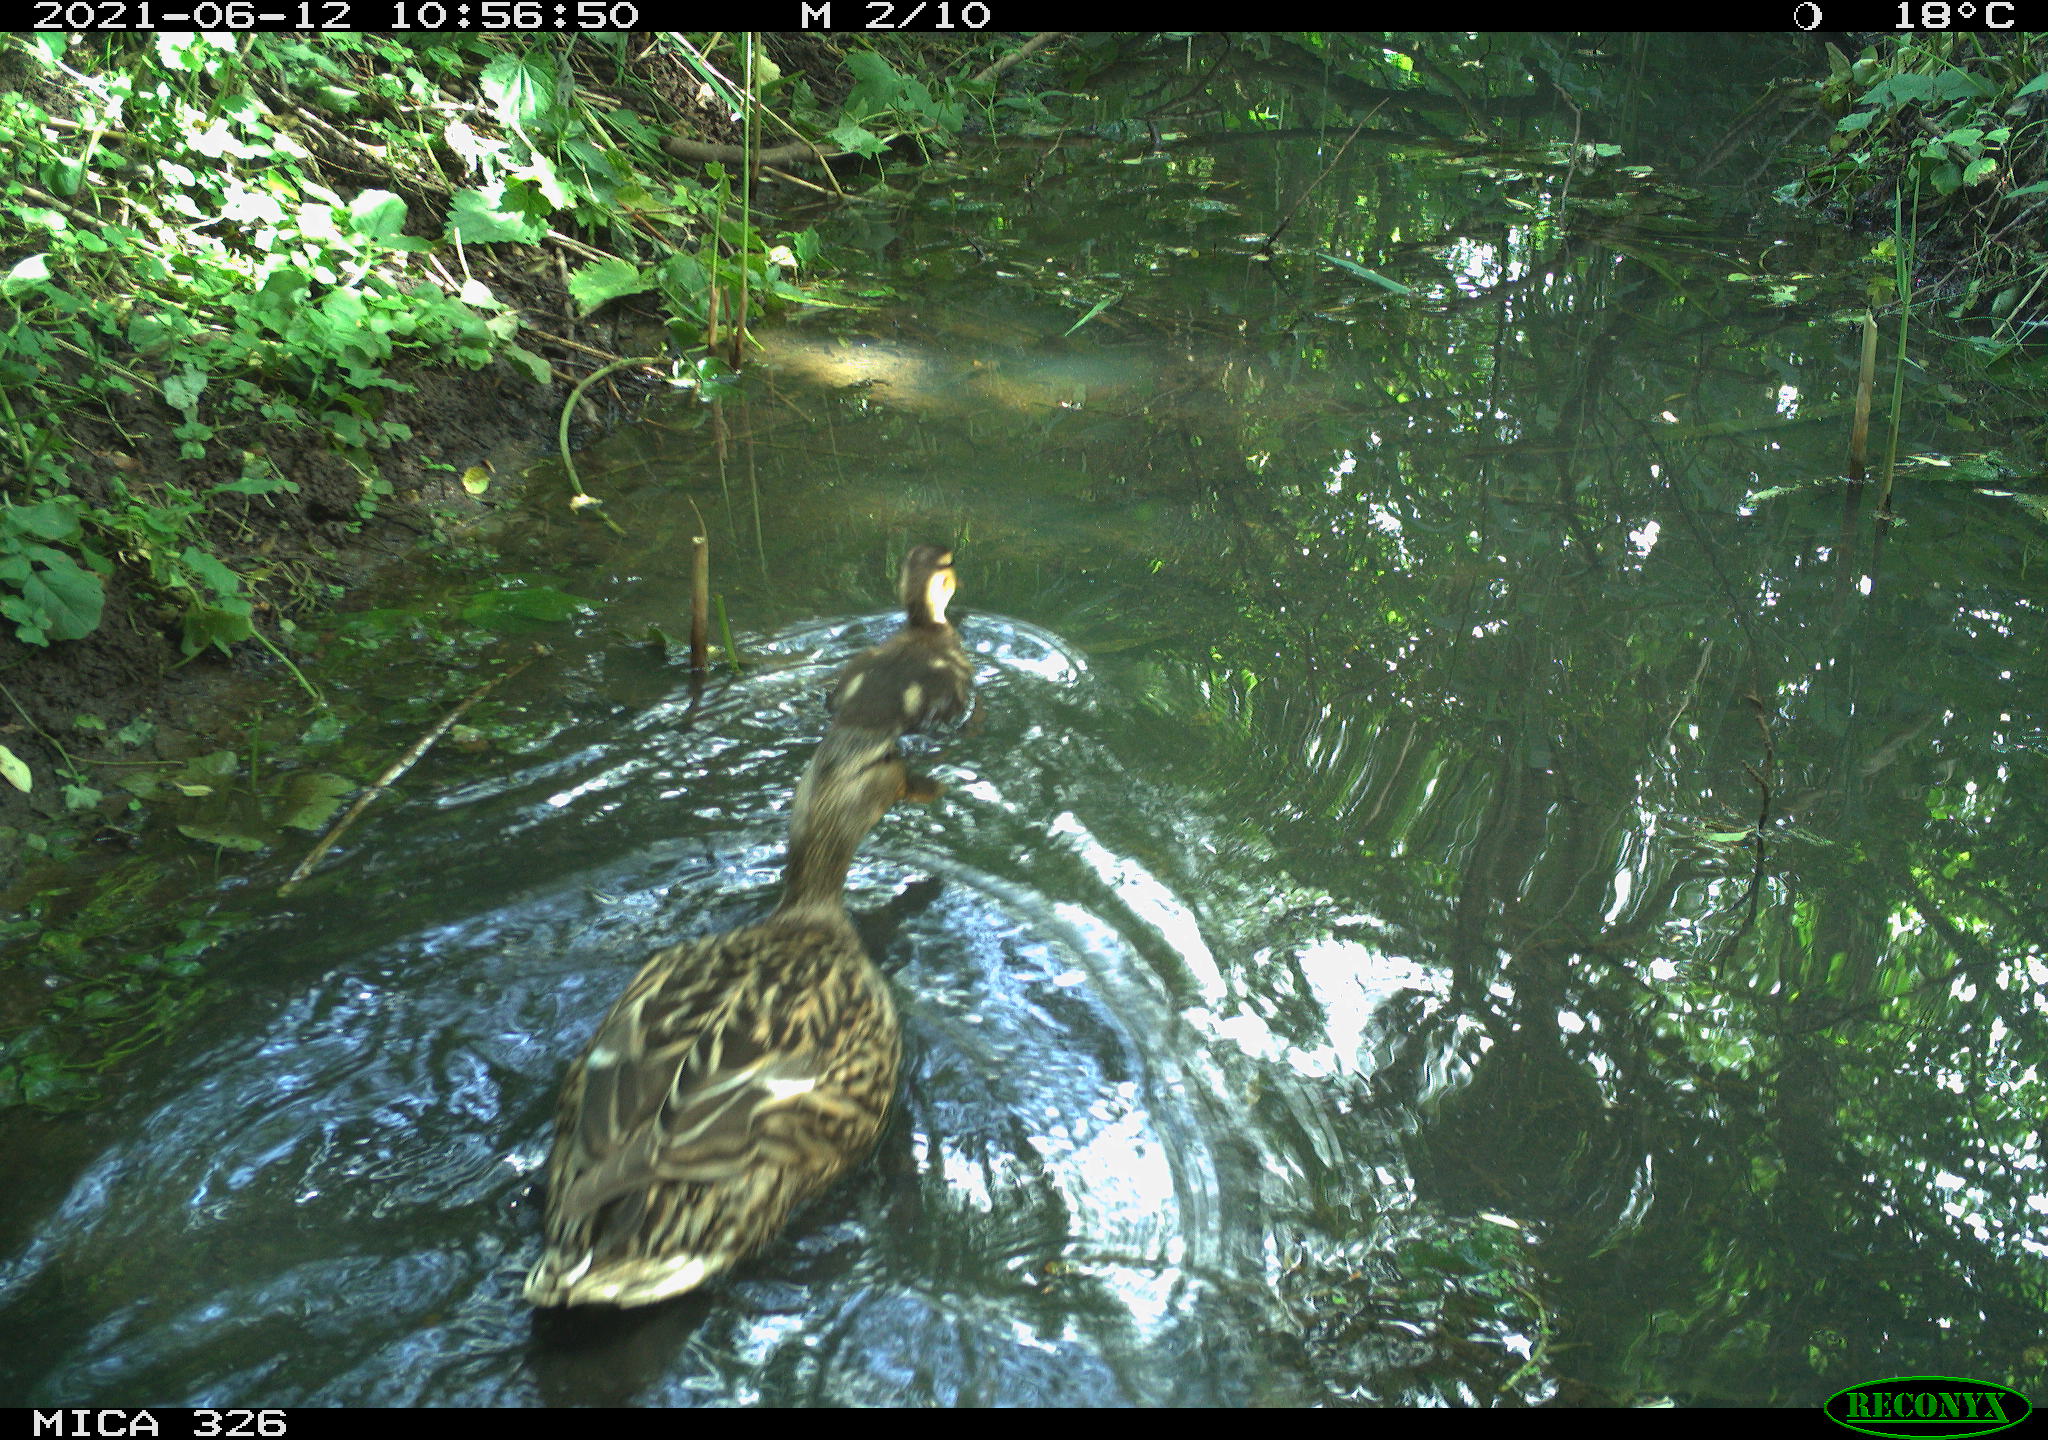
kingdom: Animalia
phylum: Chordata
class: Aves
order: Anseriformes
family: Anatidae
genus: Anas
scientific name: Anas platyrhynchos
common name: Mallard
